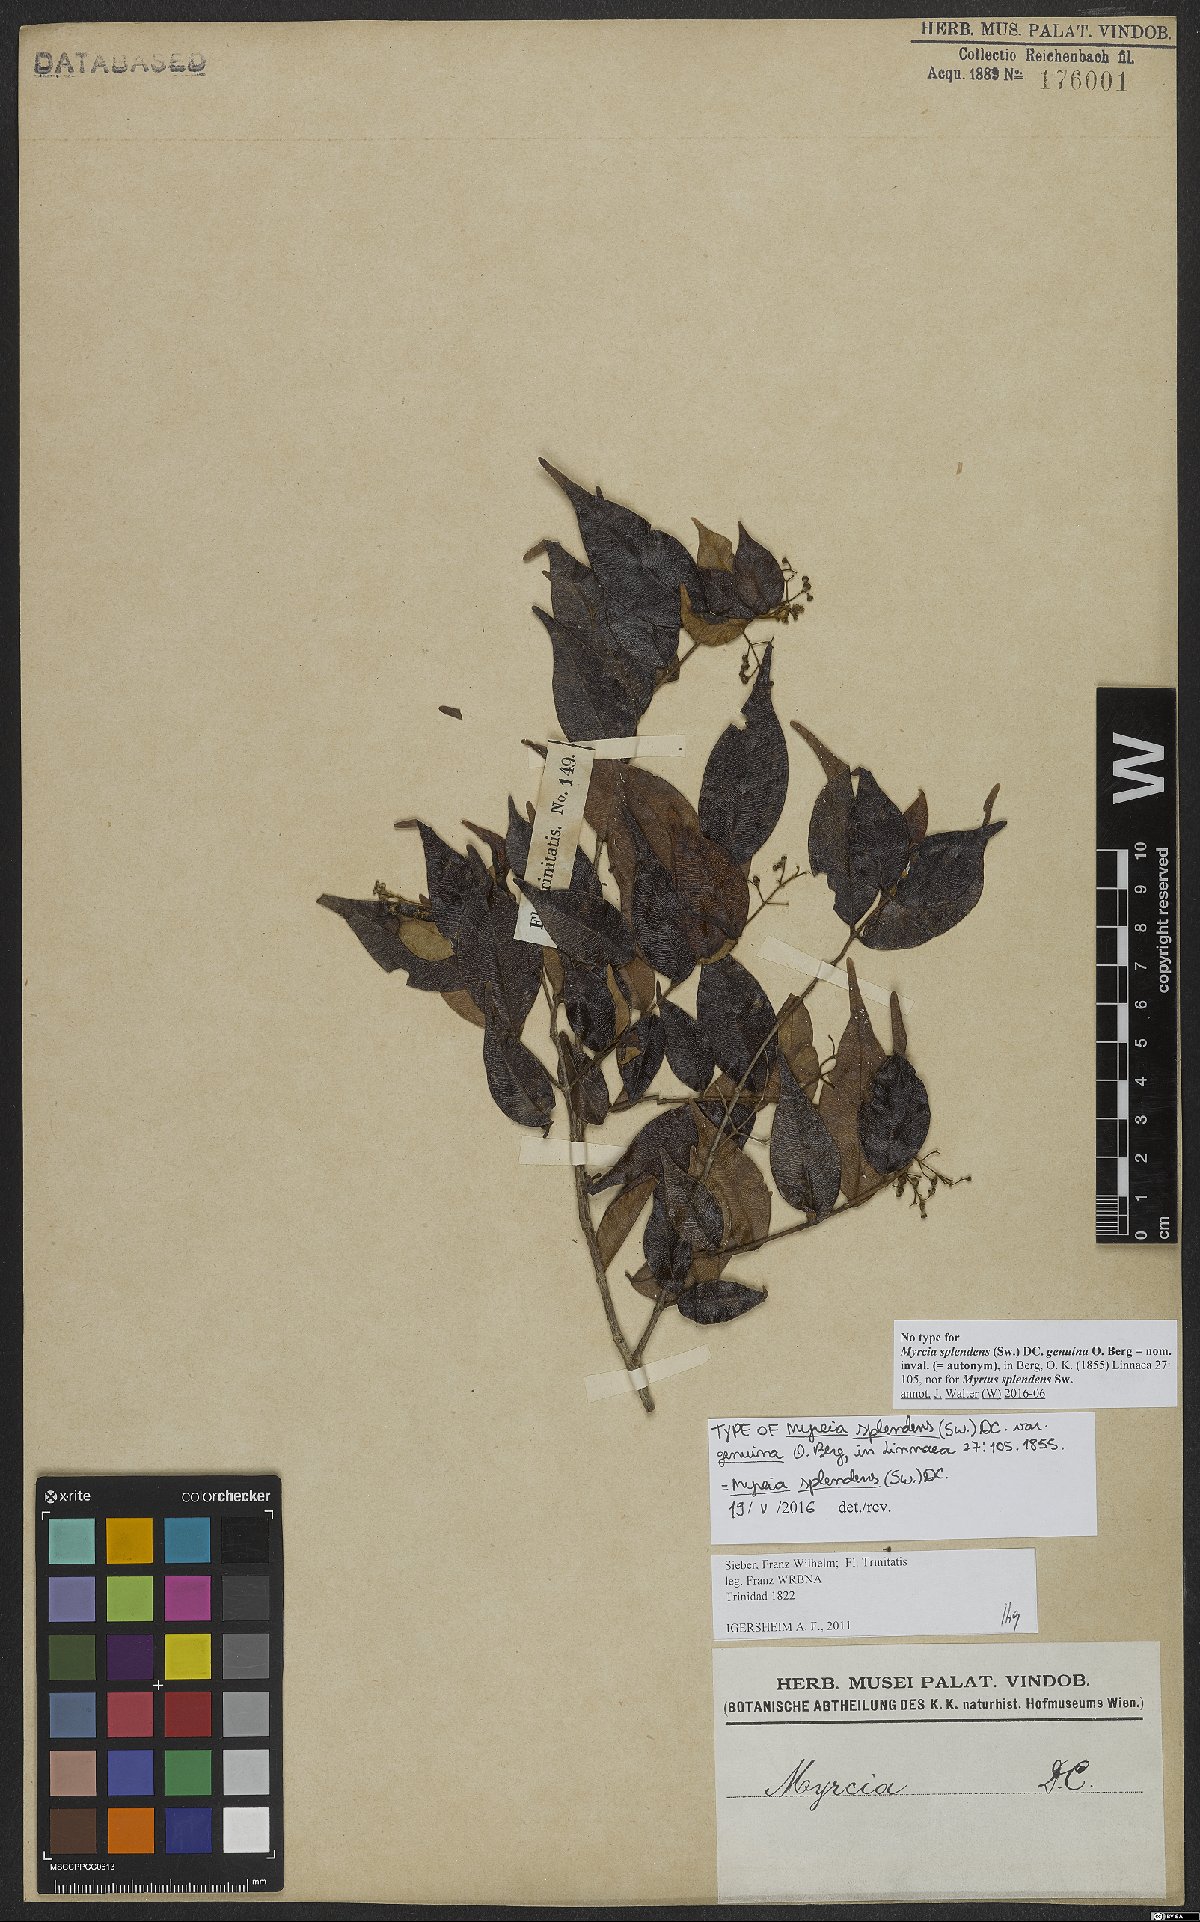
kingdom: Plantae
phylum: Tracheophyta
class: Magnoliopsida
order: Myrtales
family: Myrtaceae
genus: Myrcia
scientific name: Myrcia splendens
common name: Surinam cherry
